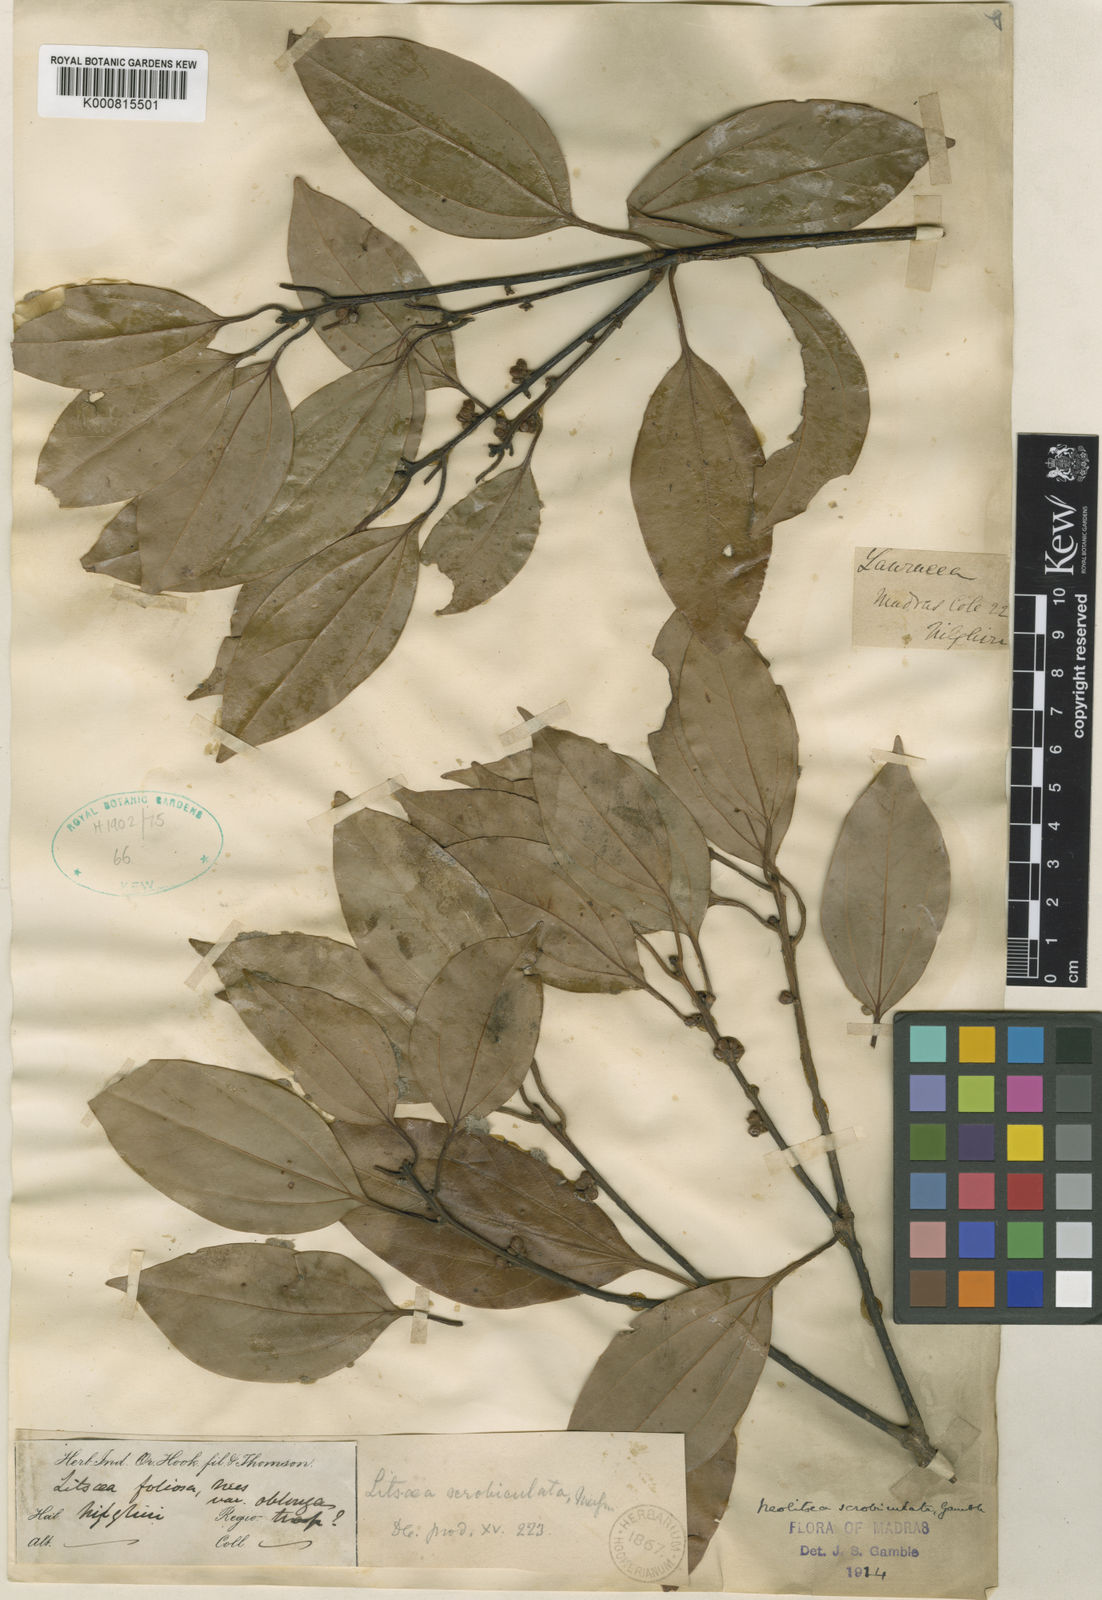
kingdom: Plantae
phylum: Tracheophyta
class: Magnoliopsida
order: Laurales
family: Lauraceae
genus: Neolitsea
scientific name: Neolitsea foliosa
